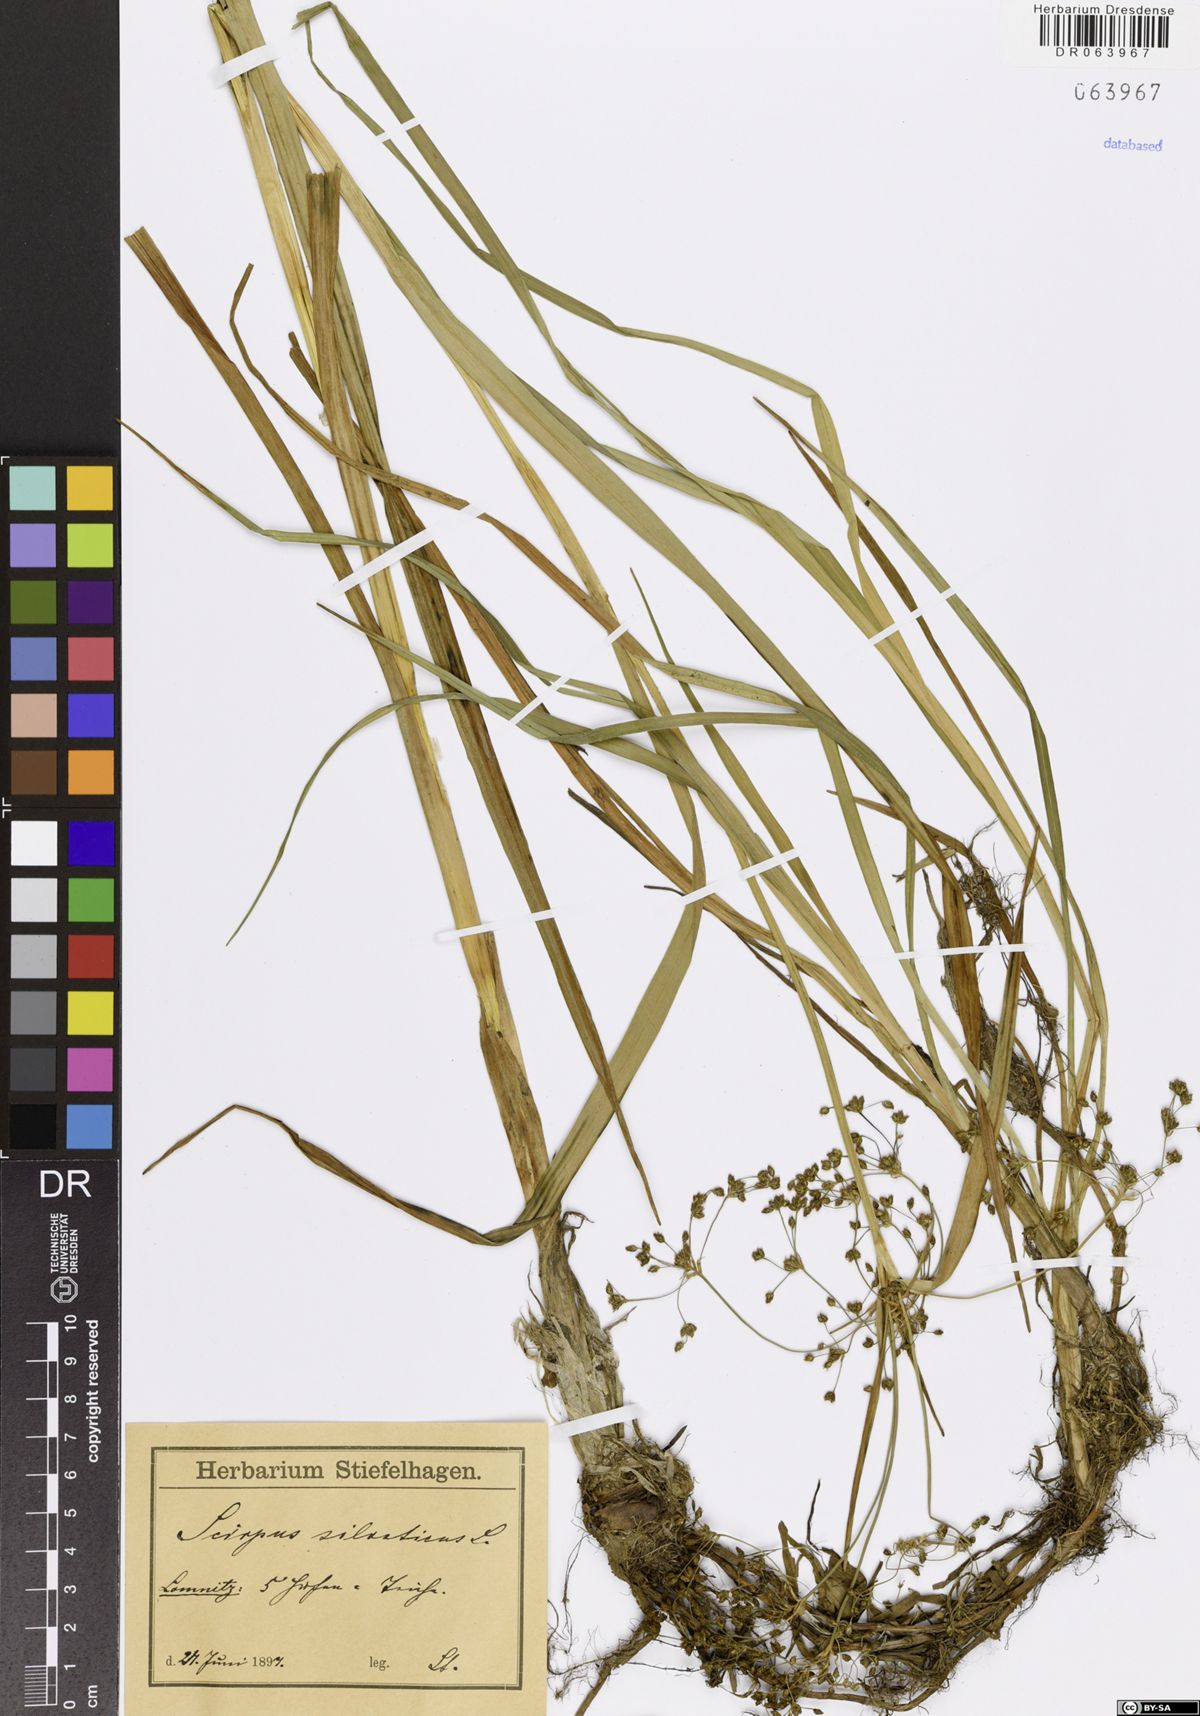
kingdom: Plantae
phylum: Tracheophyta
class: Liliopsida
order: Poales
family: Cyperaceae
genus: Scirpus
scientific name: Scirpus sylvaticus
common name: Wood club-rush
